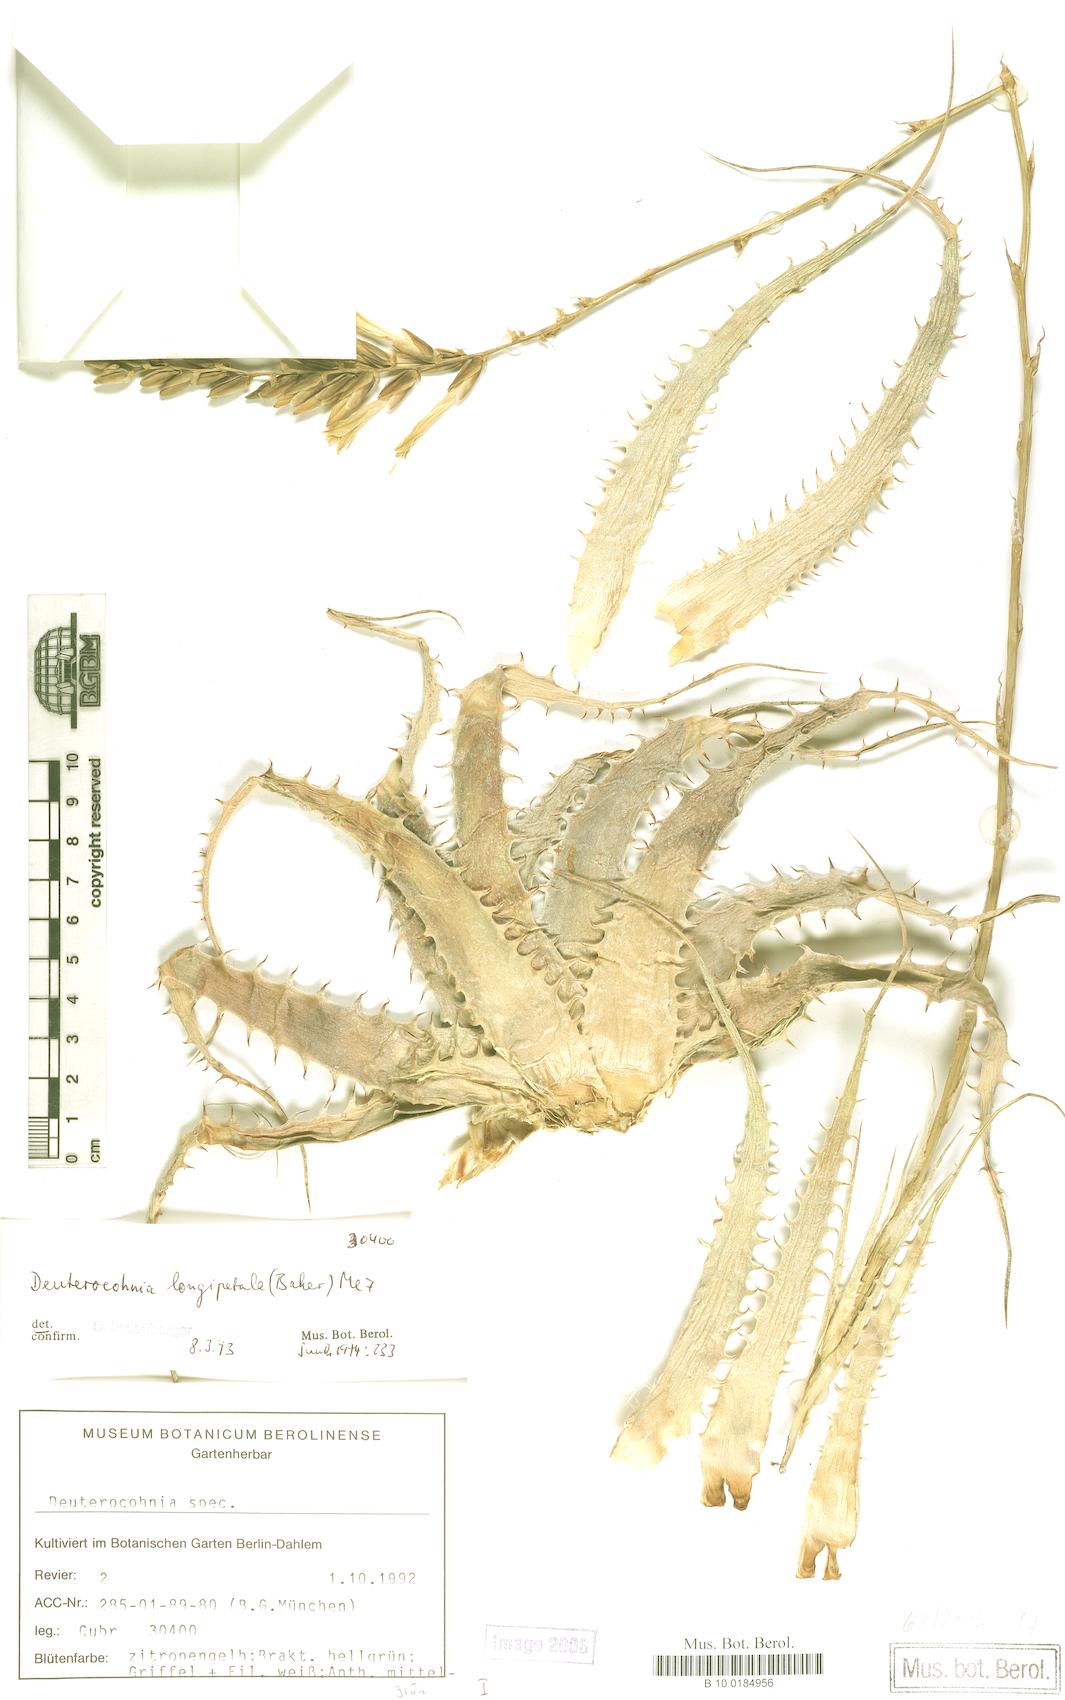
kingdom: Plantae
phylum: Tracheophyta
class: Liliopsida
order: Poales
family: Bromeliaceae
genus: Deuterocohnia
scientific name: Deuterocohnia longipetala
